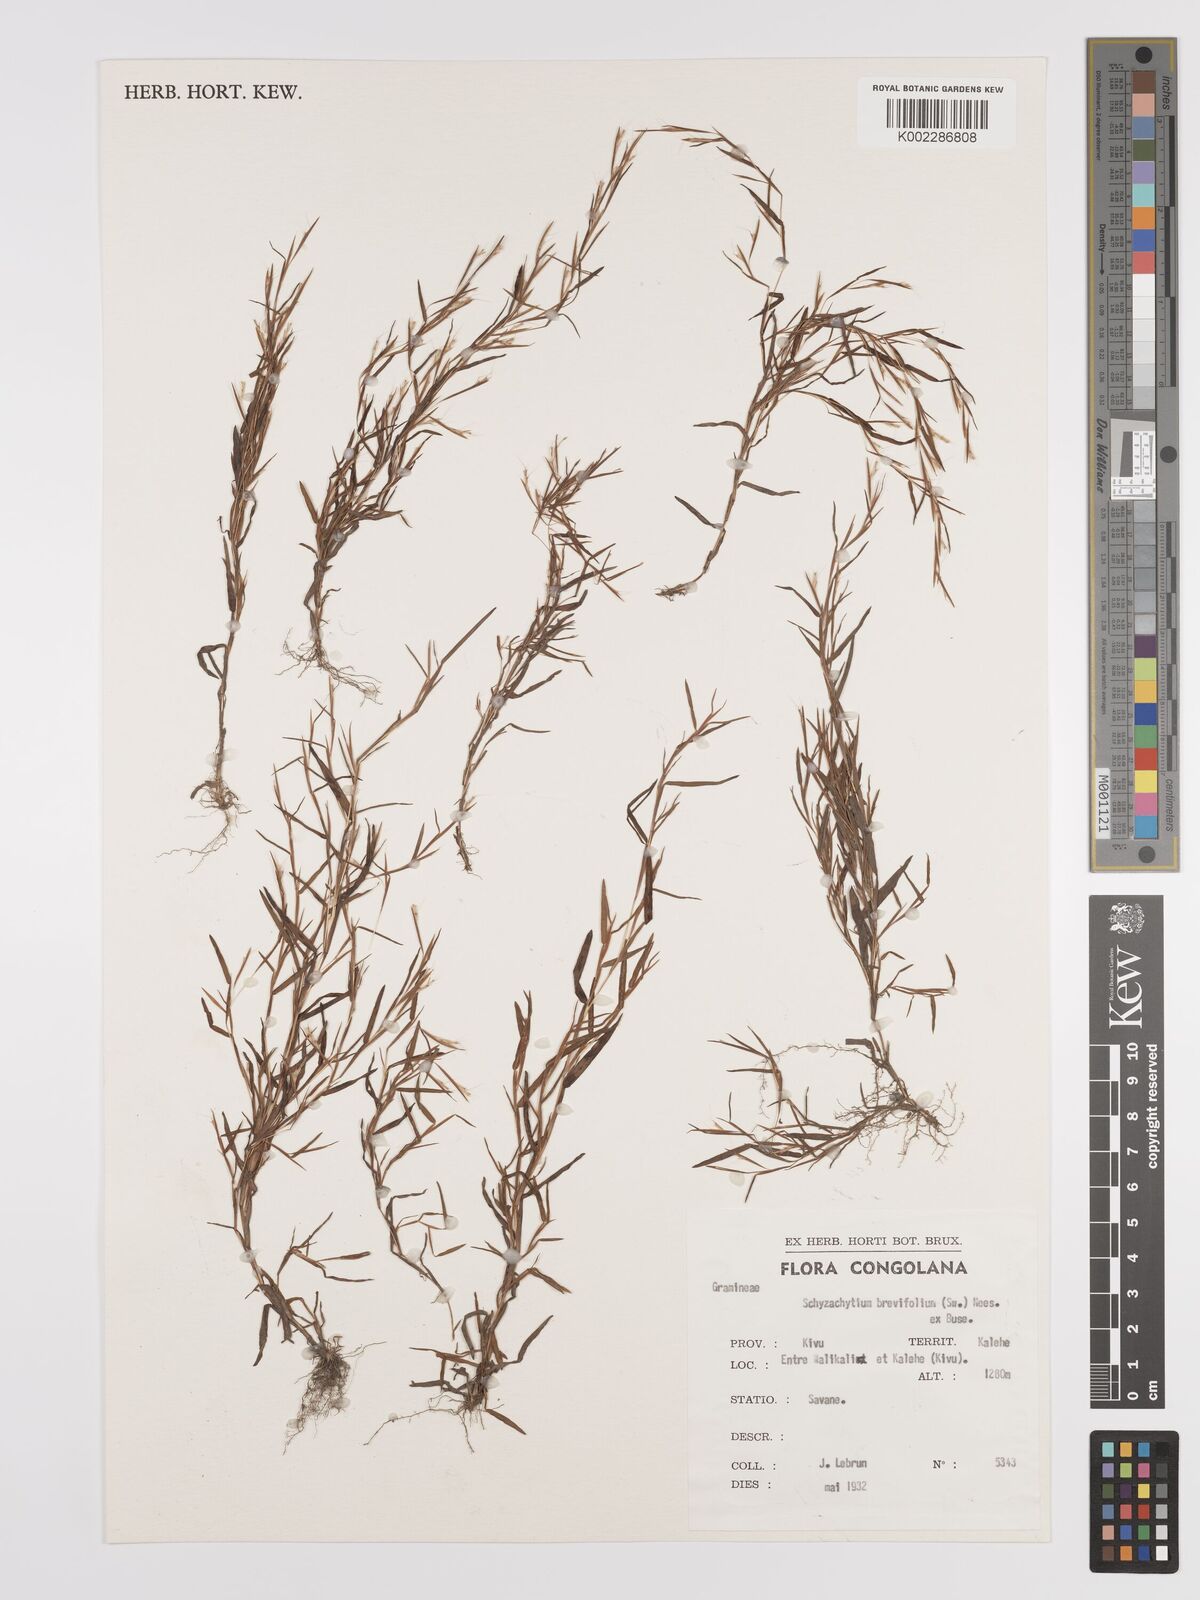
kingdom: Plantae
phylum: Tracheophyta
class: Liliopsida
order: Poales
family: Poaceae
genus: Schizachyrium
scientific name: Schizachyrium brevifolium
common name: Serillo dulce
